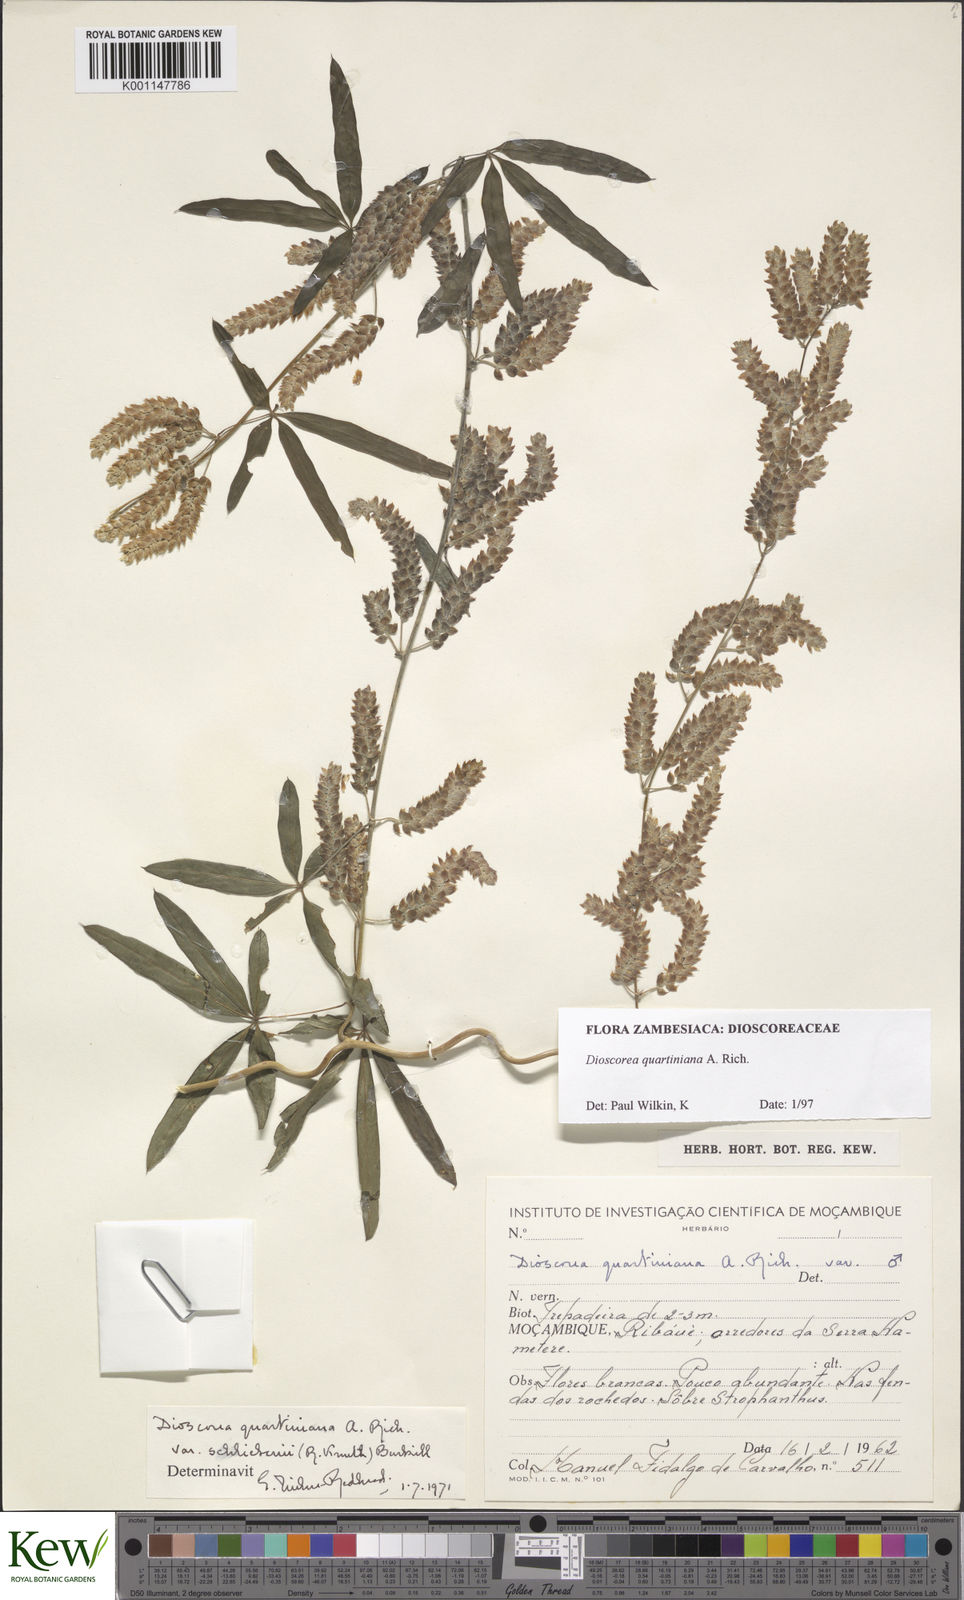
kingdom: Plantae
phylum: Tracheophyta
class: Liliopsida
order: Dioscoreales
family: Dioscoreaceae
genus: Dioscorea
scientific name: Dioscorea quartiniana
